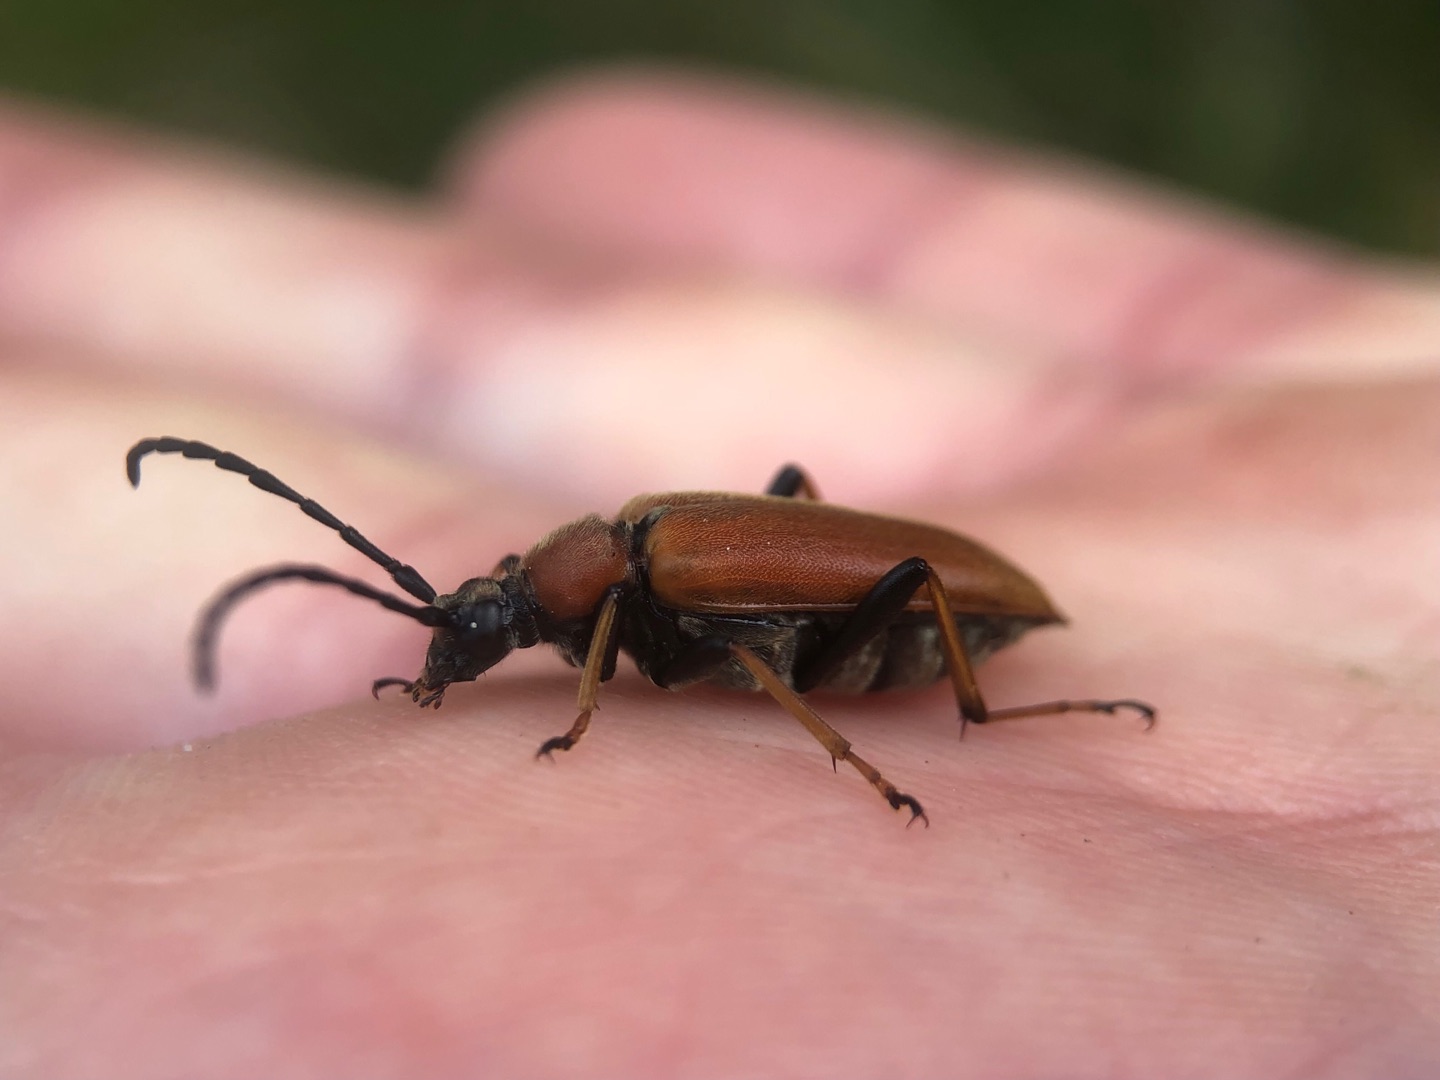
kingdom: Animalia
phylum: Arthropoda
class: Insecta
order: Coleoptera
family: Cerambycidae
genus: Stictoleptura
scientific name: Stictoleptura rubra
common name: Rød blomsterbuk
